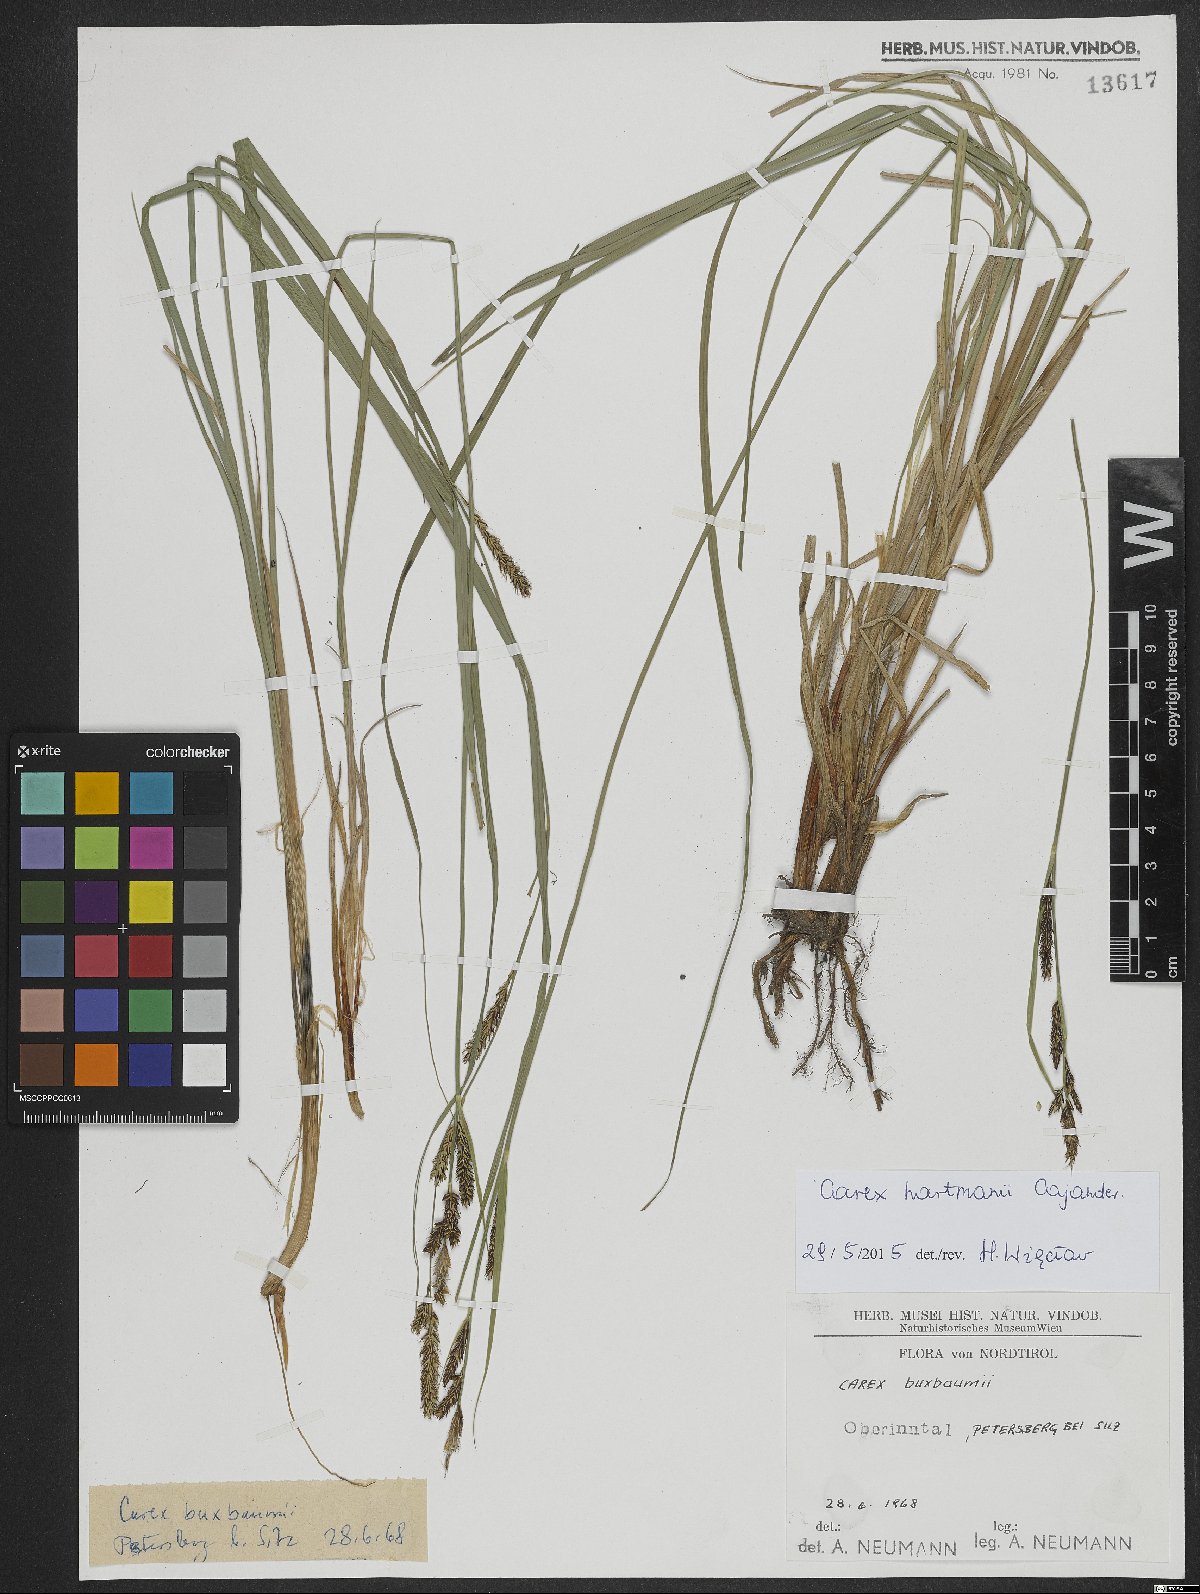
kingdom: Plantae
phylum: Tracheophyta
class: Liliopsida
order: Poales
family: Cyperaceae
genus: Carex
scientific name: Carex hartmaniorum
